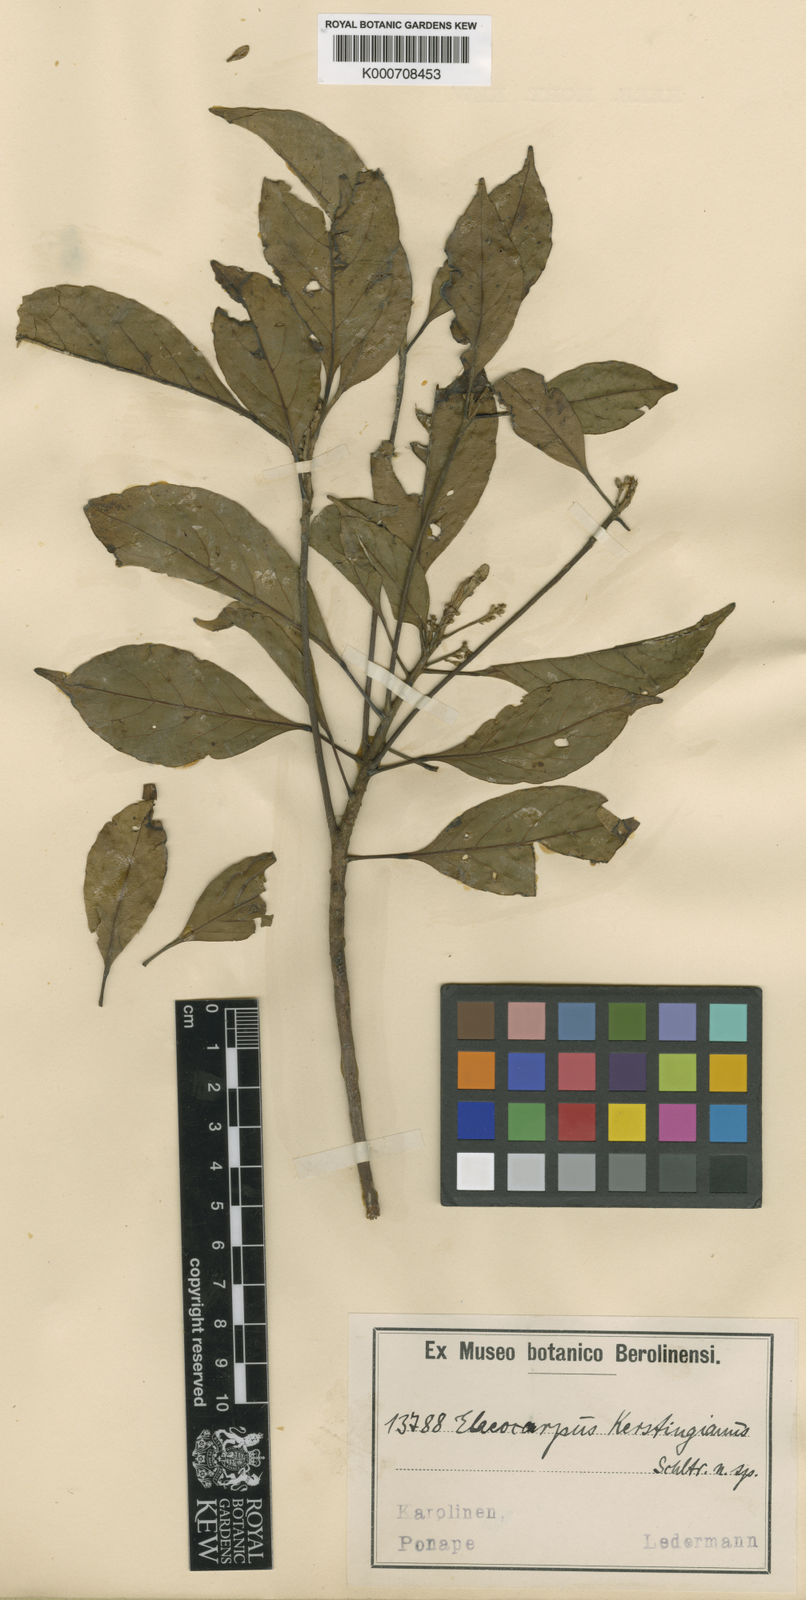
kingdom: Plantae
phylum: Tracheophyta
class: Magnoliopsida
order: Oxalidales
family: Elaeocarpaceae
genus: Elaeocarpus
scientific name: Elaeocarpus kerstingianus
